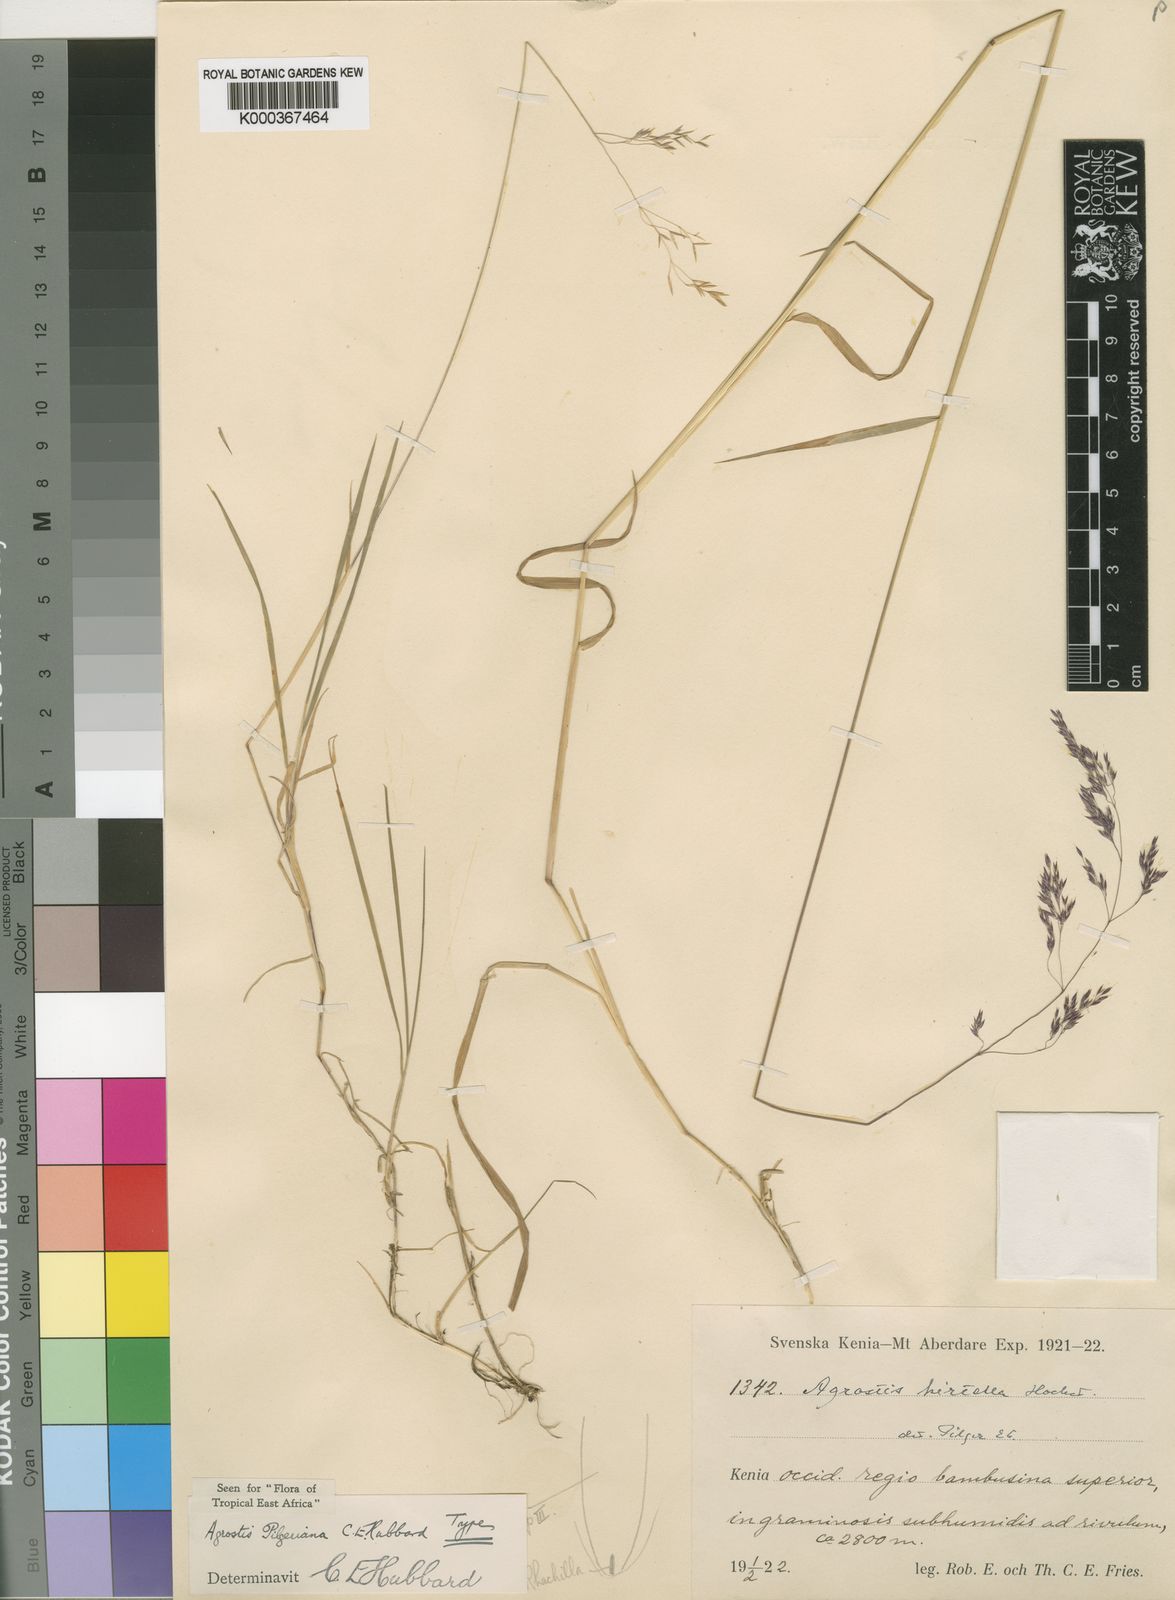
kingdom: Plantae
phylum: Tracheophyta
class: Liliopsida
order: Poales
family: Poaceae
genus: Agrostis
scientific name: Agrostis pilgeriana
